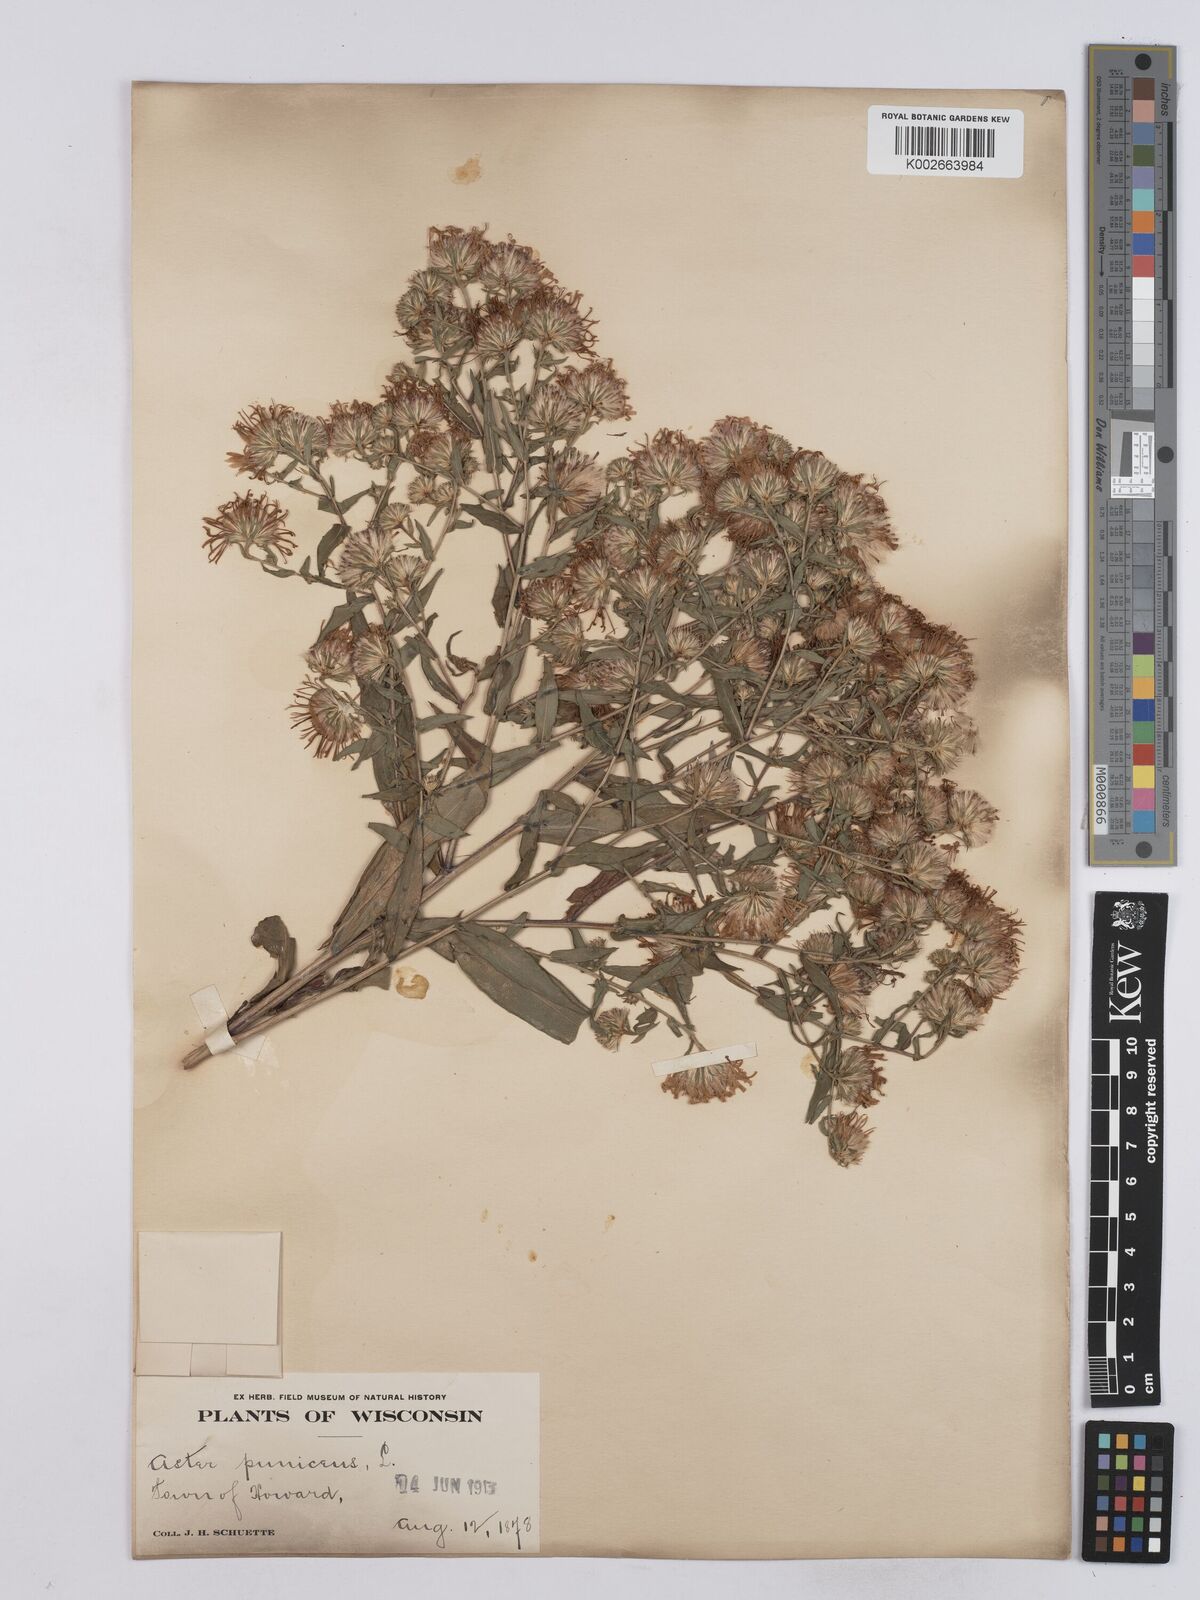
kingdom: Plantae
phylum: Tracheophyta
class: Magnoliopsida
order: Asterales
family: Asteraceae
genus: Symphyotrichum
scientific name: Symphyotrichum puniceum
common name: Bog aster
